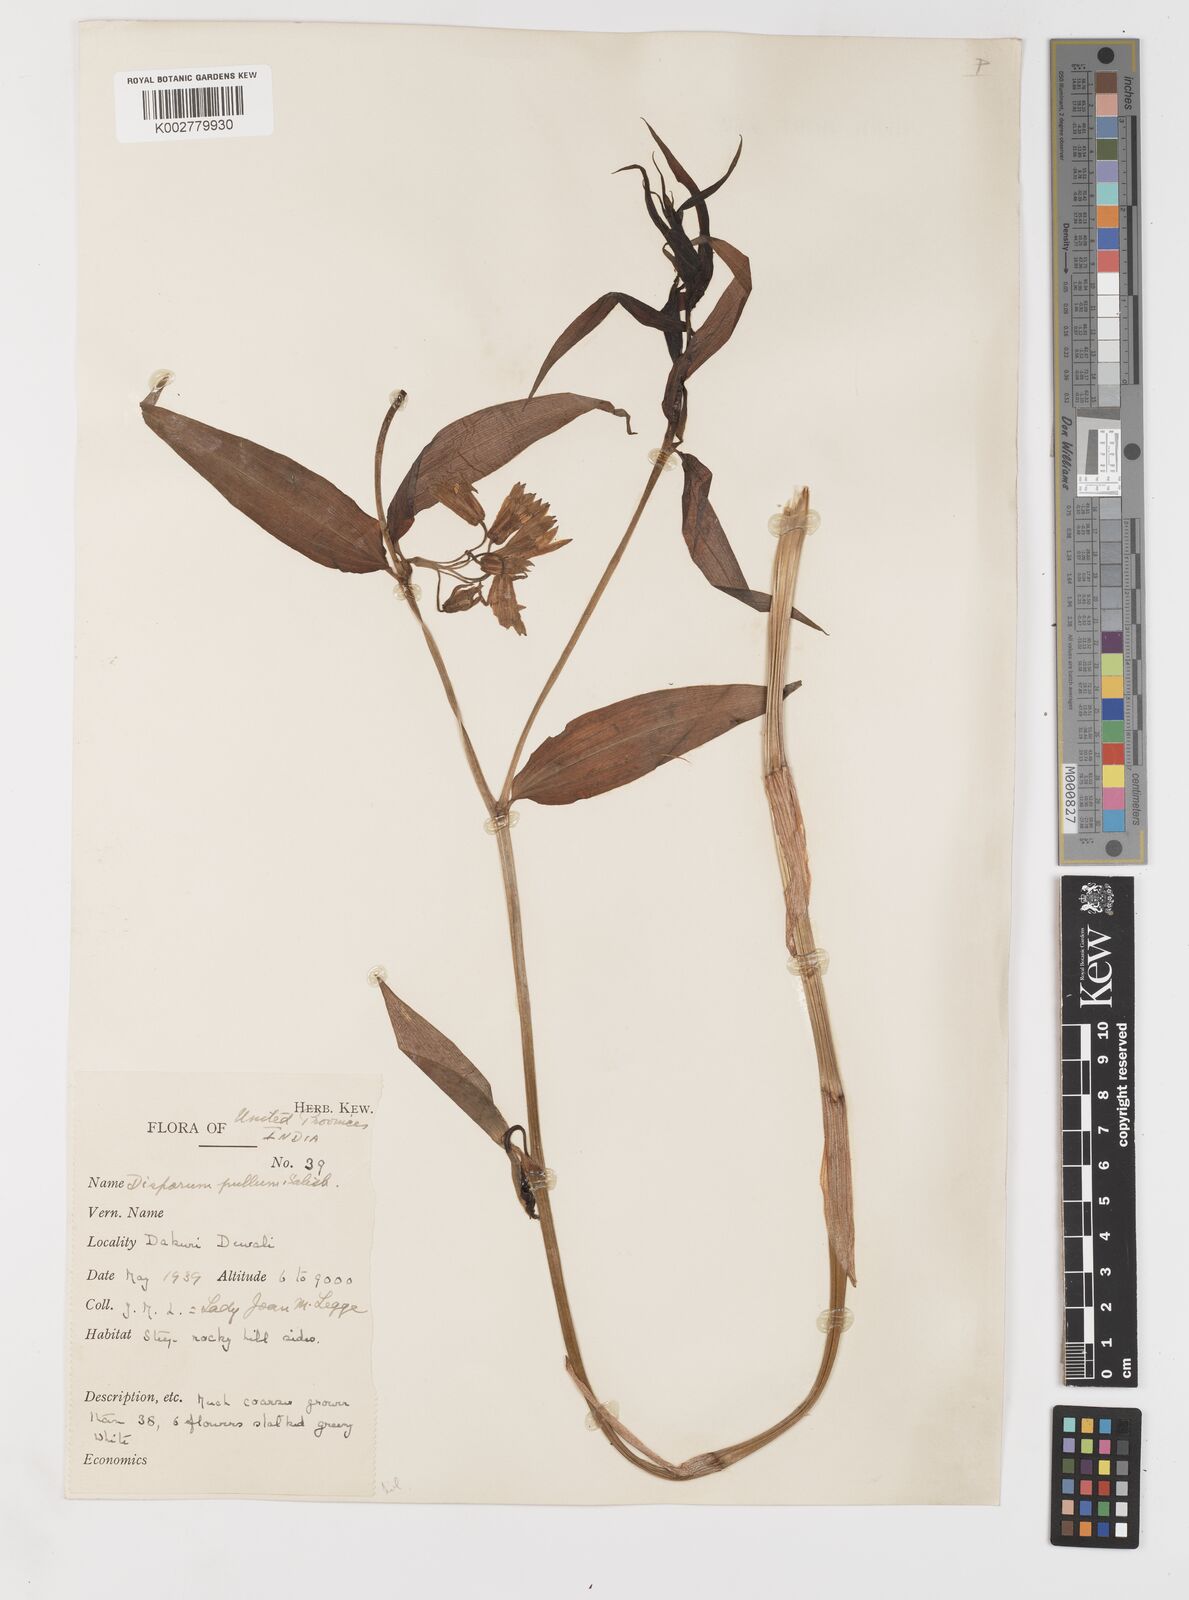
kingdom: Plantae
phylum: Tracheophyta
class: Liliopsida
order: Liliales
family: Colchicaceae
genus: Disporum
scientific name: Disporum cantoniense
